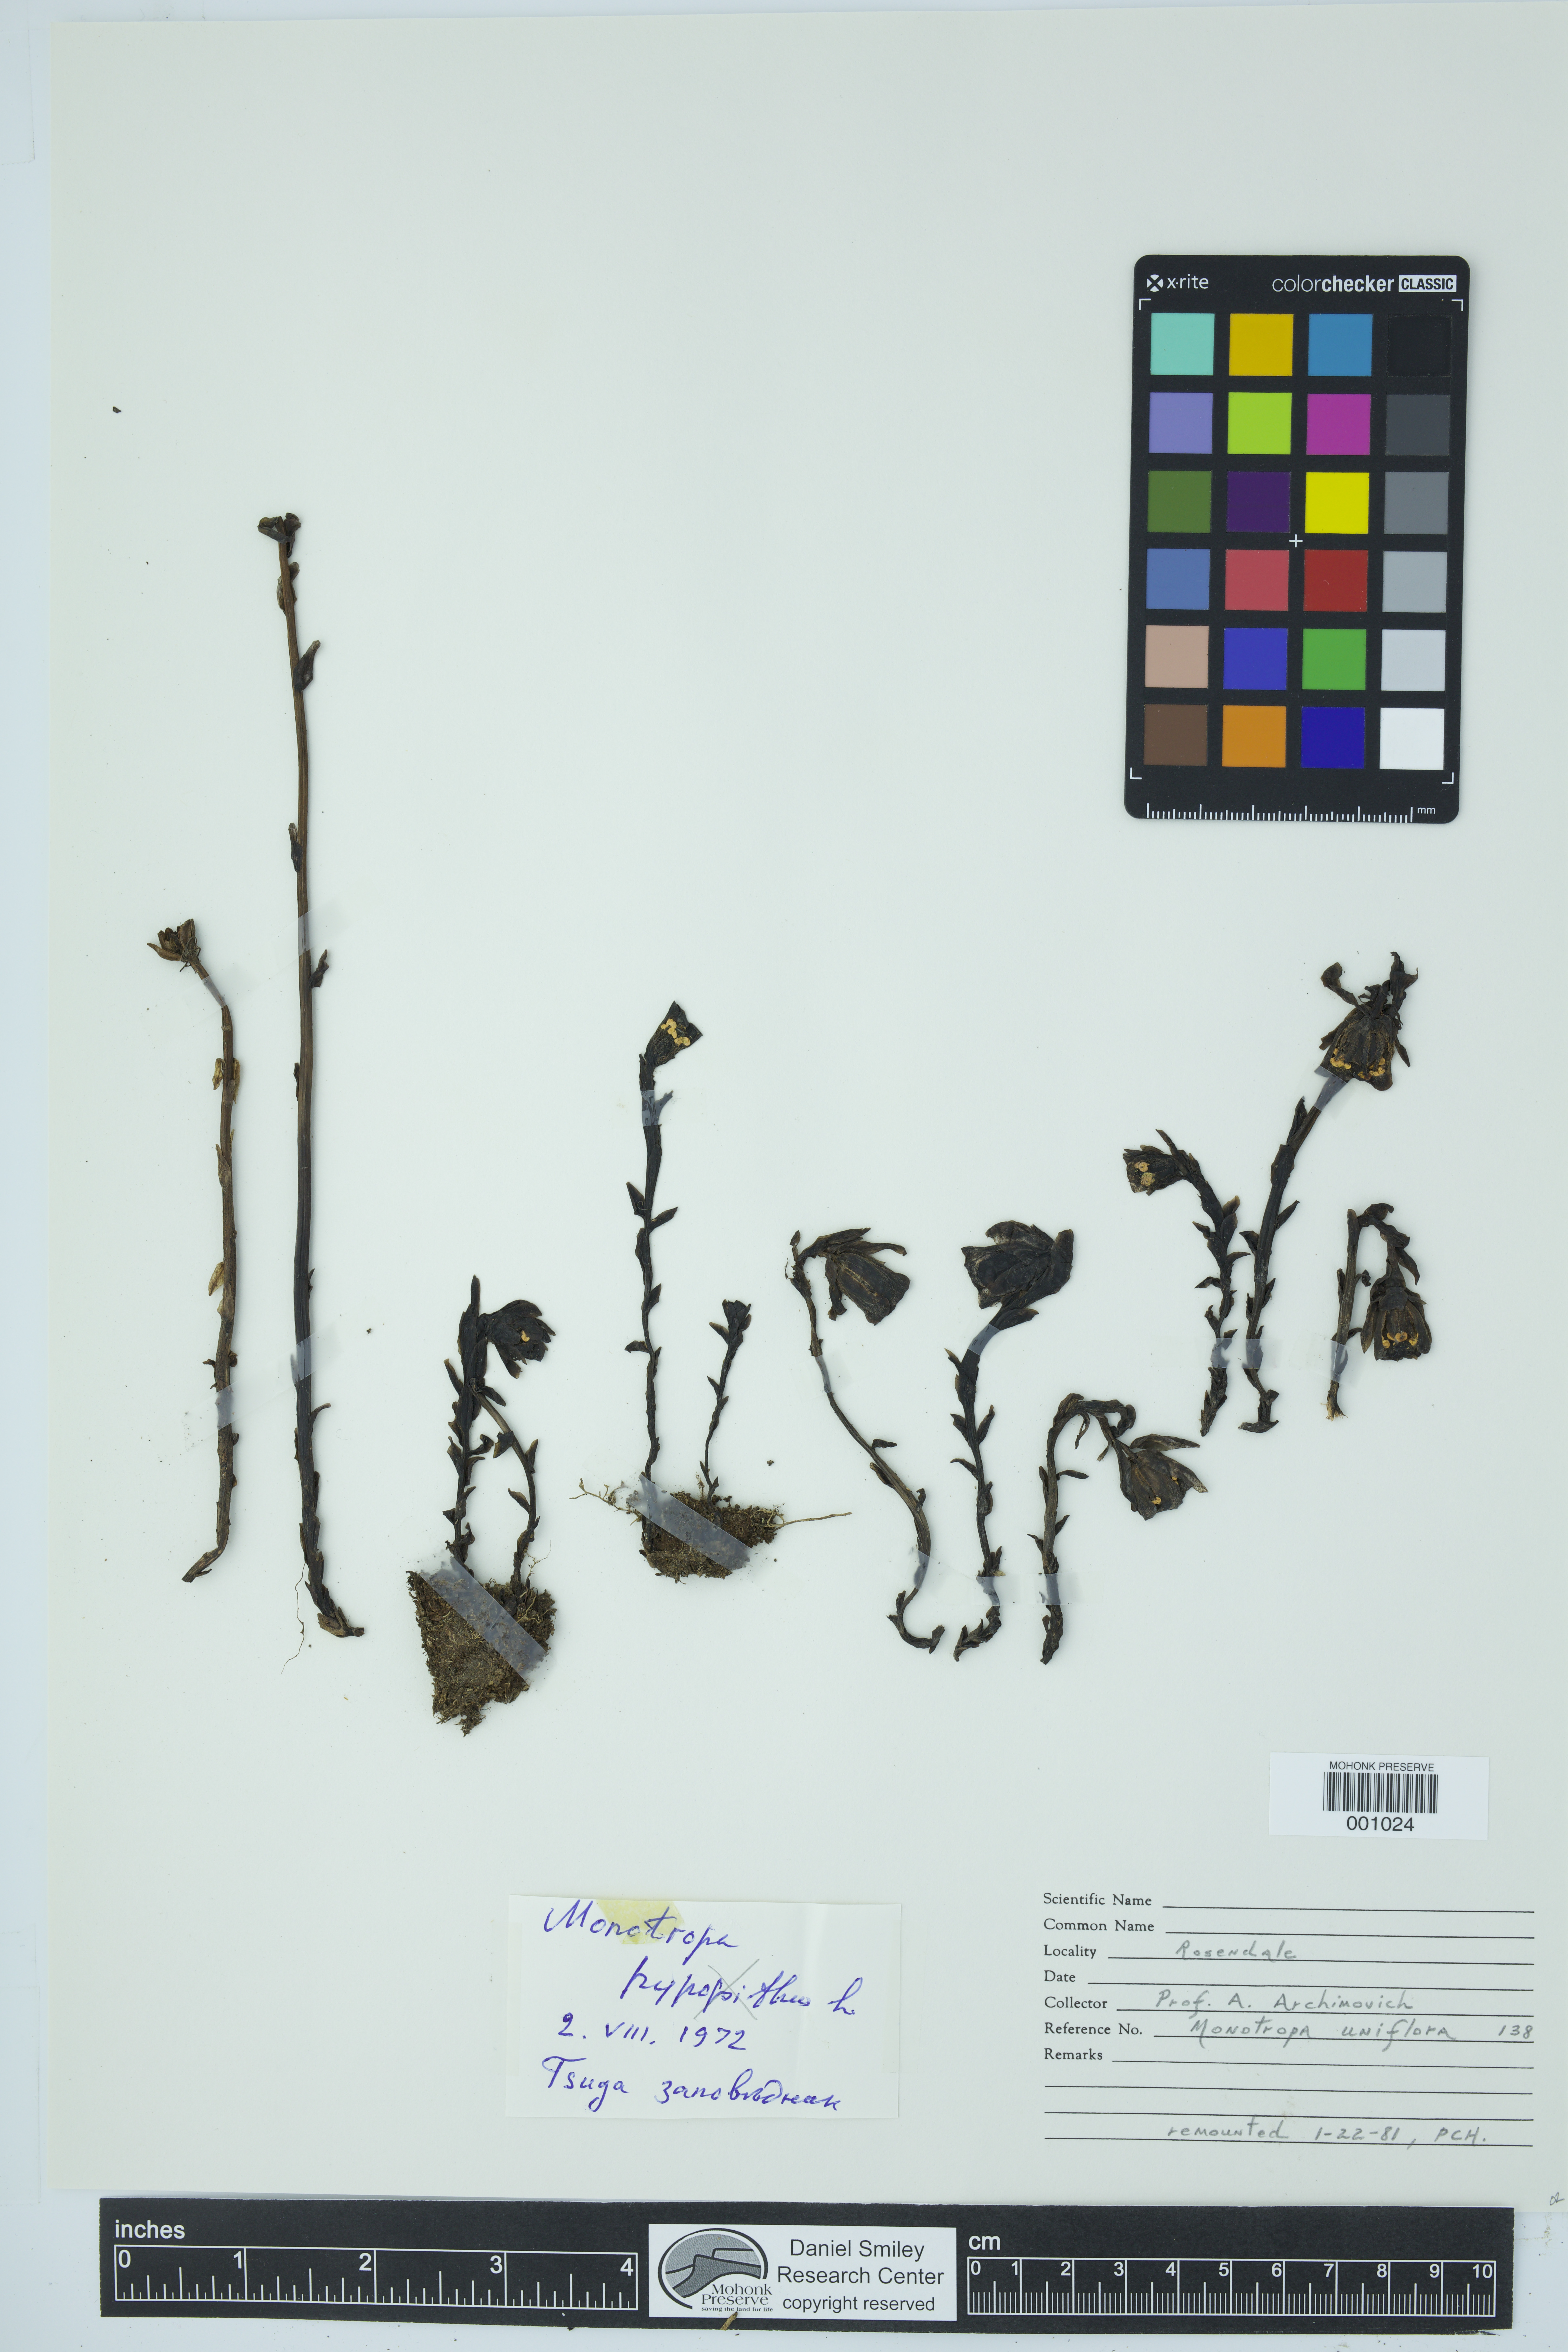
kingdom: Plantae
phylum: Tracheophyta
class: Magnoliopsida
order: Ericales
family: Ericaceae
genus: Monotropa
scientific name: Monotropa uniflora
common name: Convulsion root
